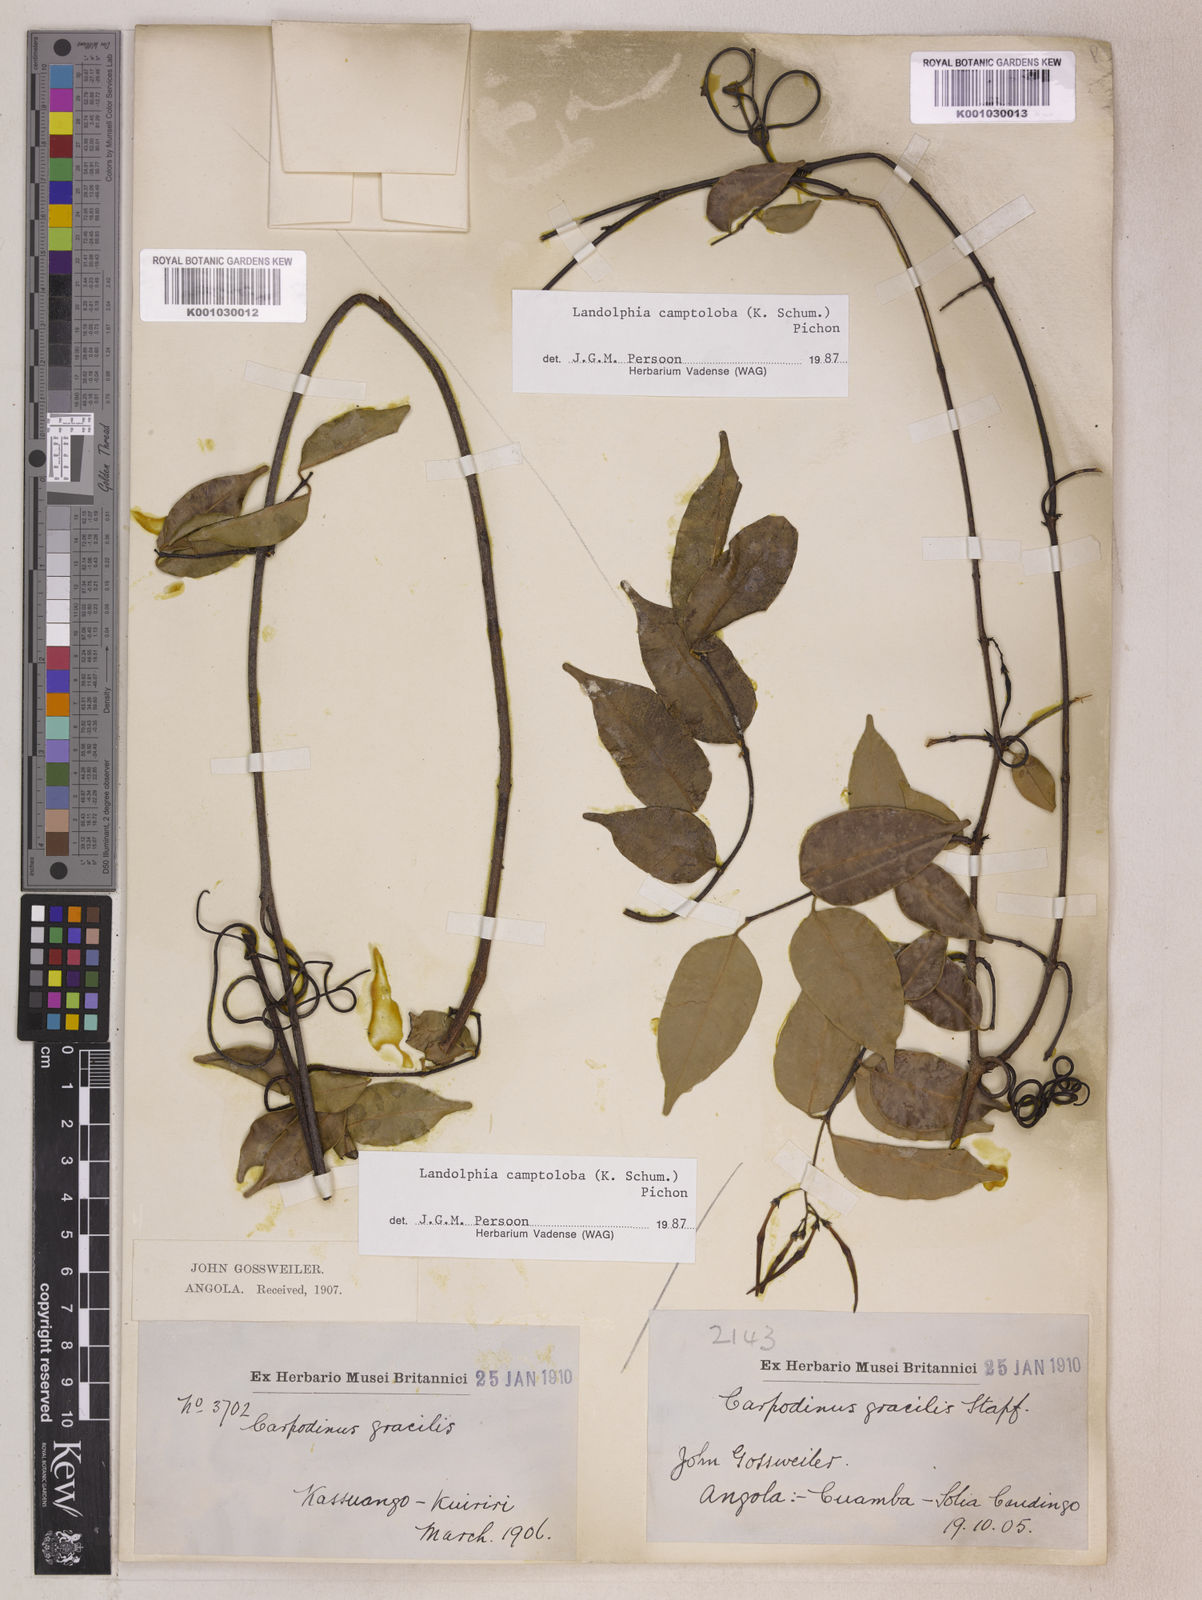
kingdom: Plantae
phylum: Tracheophyta
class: Magnoliopsida
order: Gentianales
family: Apocynaceae
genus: Landolphia
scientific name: Landolphia camptoloba
